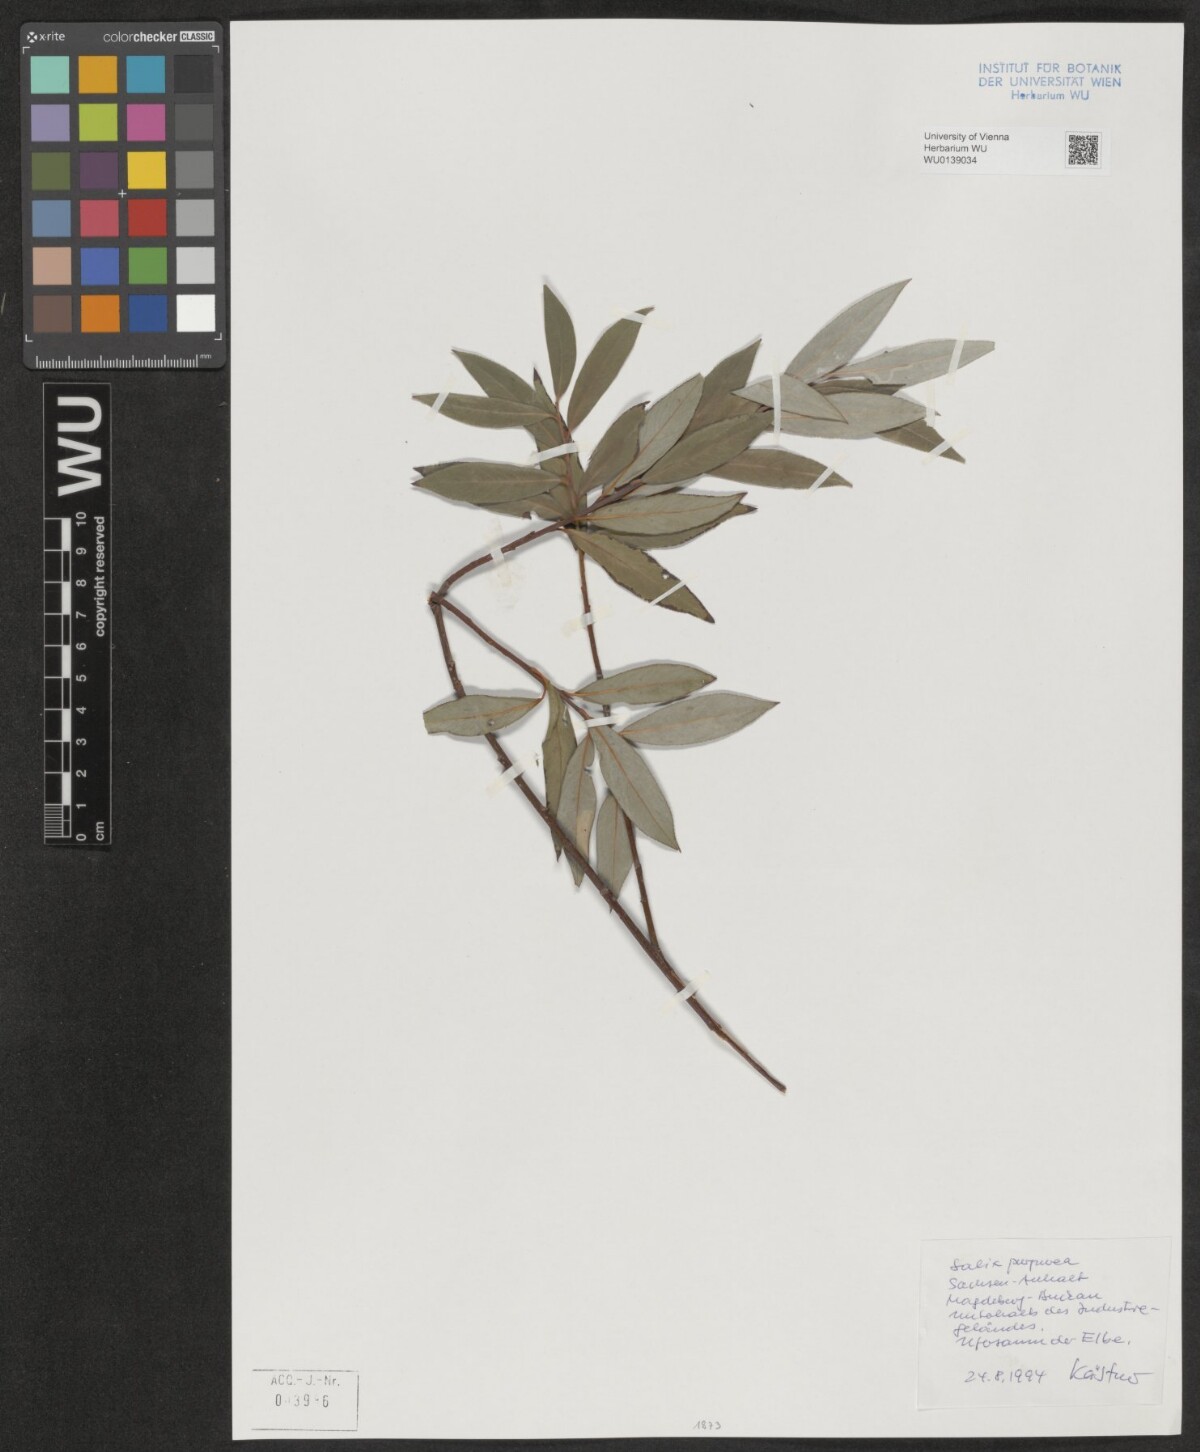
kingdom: Plantae
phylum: Tracheophyta
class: Magnoliopsida
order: Malpighiales
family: Salicaceae
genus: Salix
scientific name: Salix purpurea
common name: Purple willow
